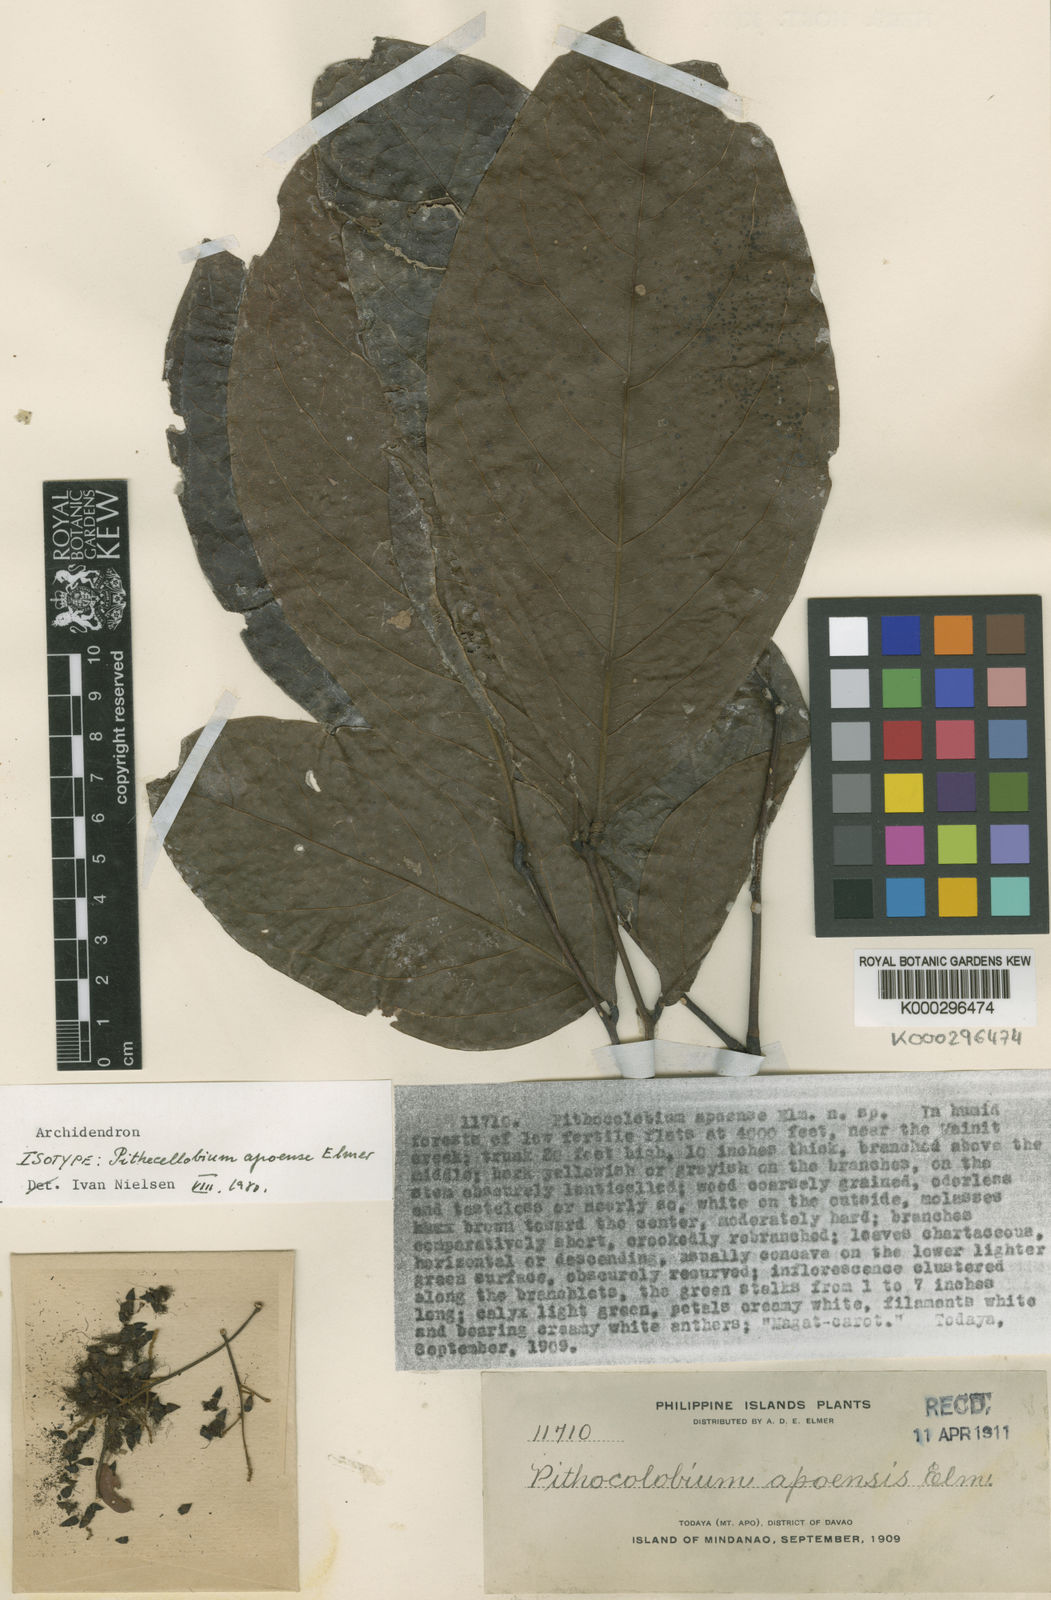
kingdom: Plantae
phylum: Tracheophyta
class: Magnoliopsida
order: Fabales
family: Fabaceae
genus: Archidendron
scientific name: Archidendron apoense
